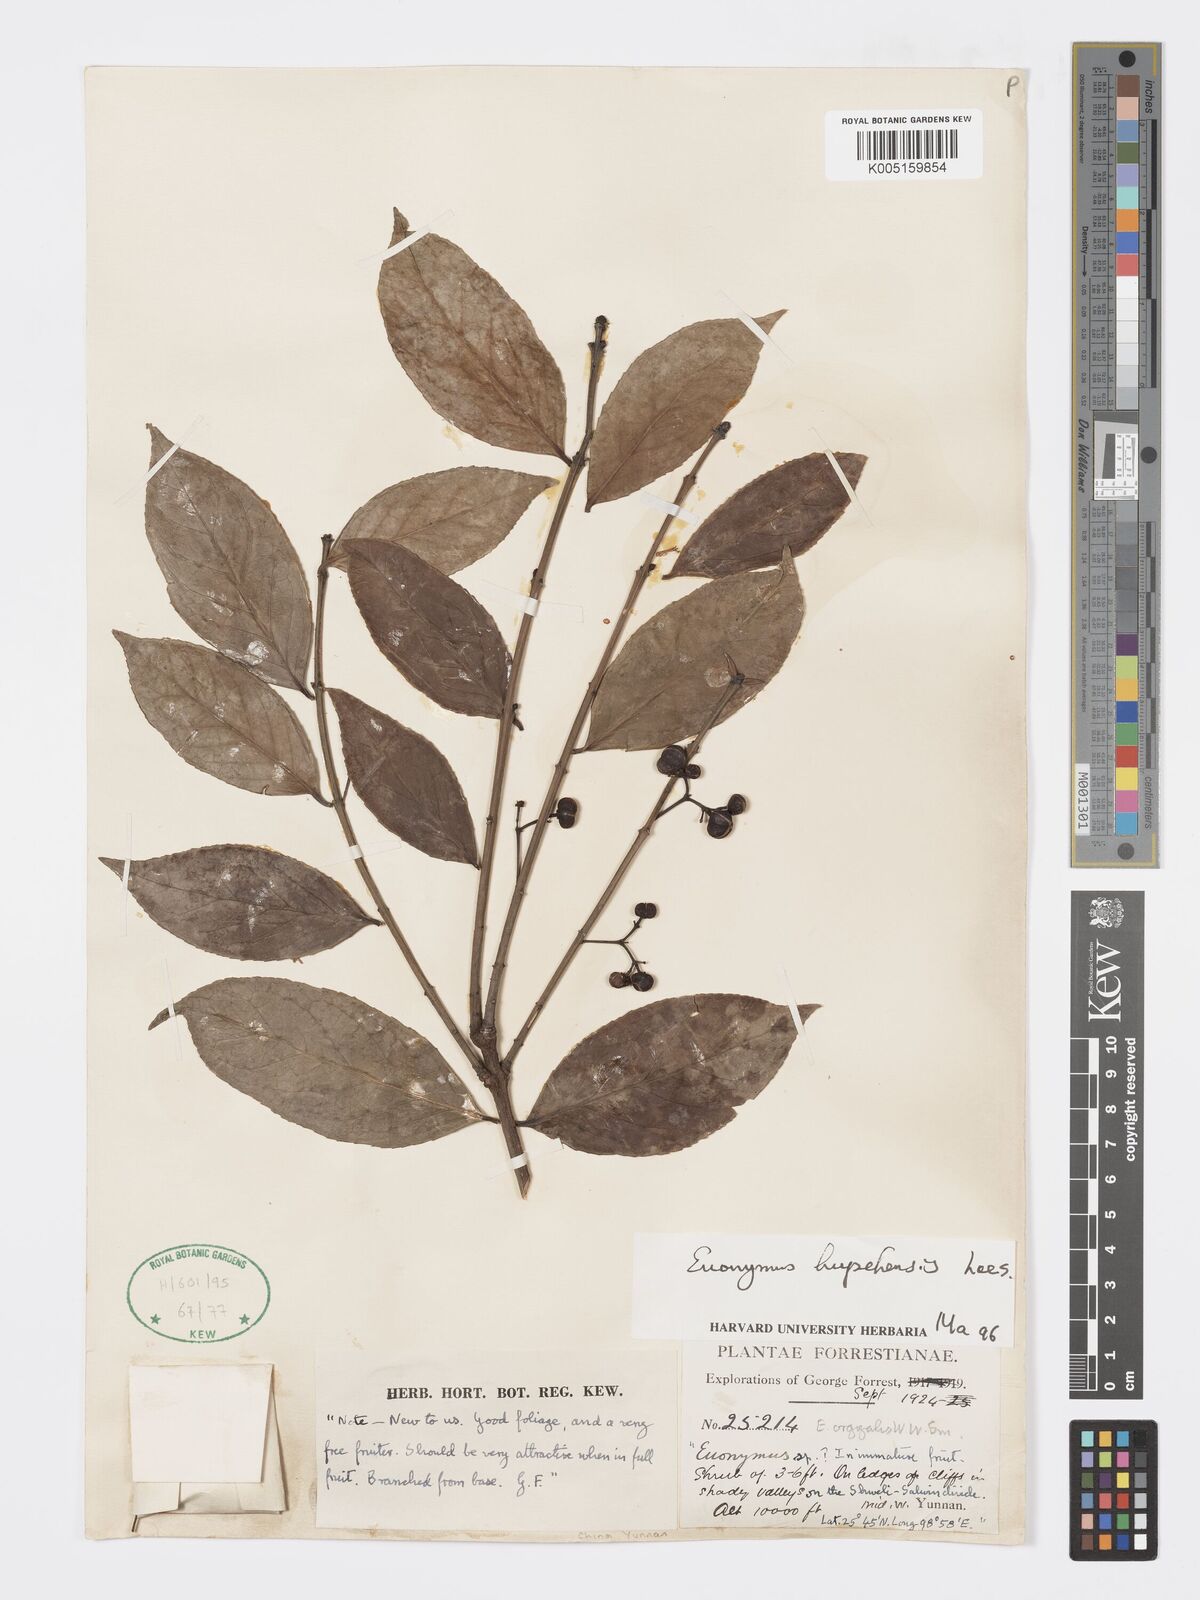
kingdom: Plantae
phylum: Tracheophyta
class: Magnoliopsida
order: Celastrales
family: Celastraceae
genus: Euonymus
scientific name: Euonymus bockii
